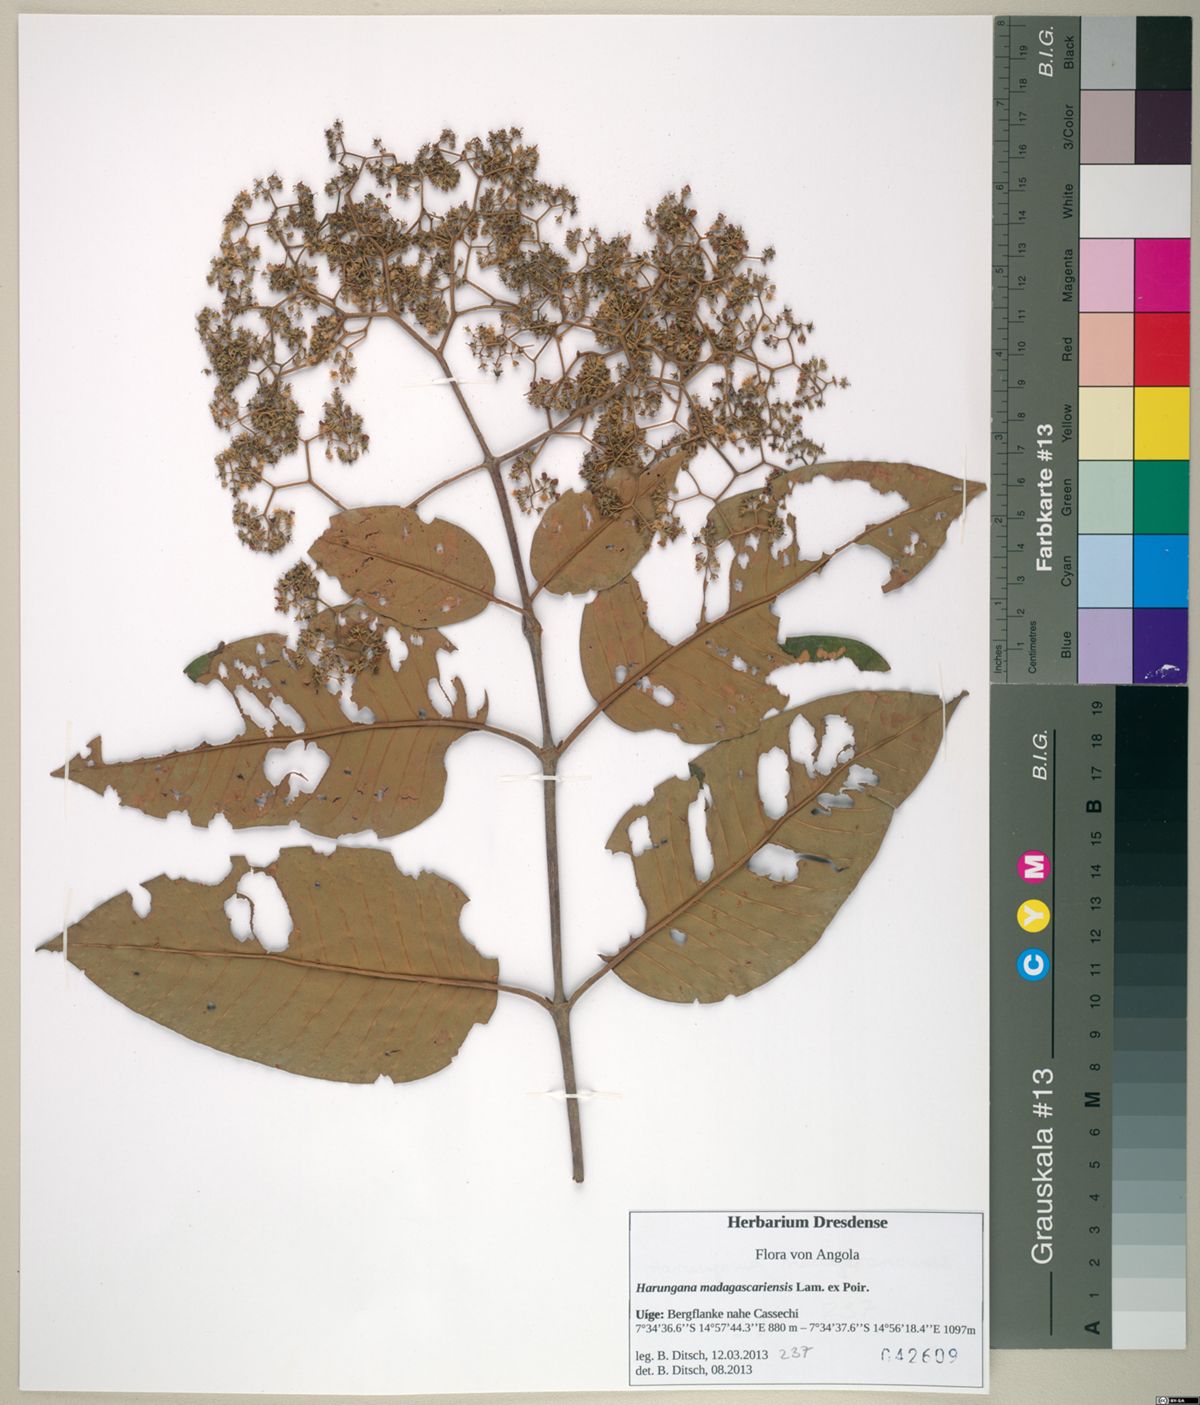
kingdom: Plantae
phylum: Tracheophyta
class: Magnoliopsida
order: Malpighiales
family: Hypericaceae
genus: Harungana
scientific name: Harungana madagascariensis
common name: Orange milktree
